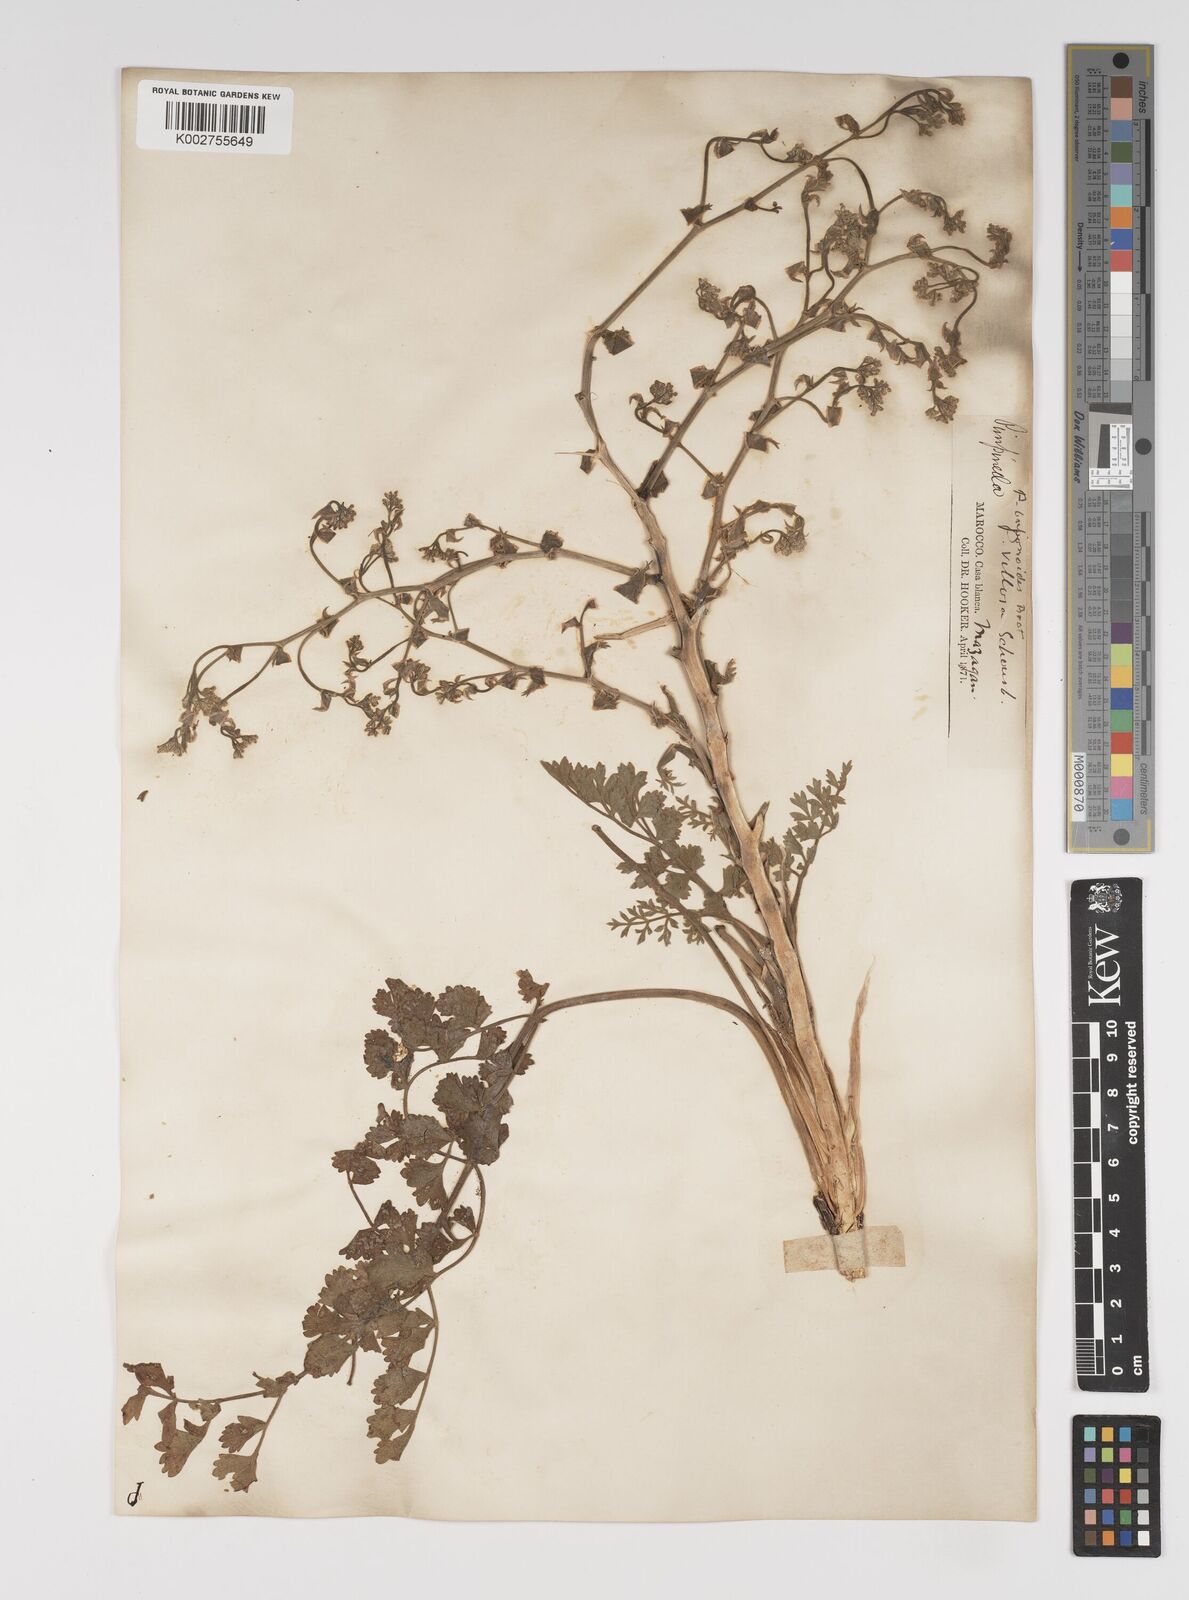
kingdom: Plantae
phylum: Tracheophyta
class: Magnoliopsida
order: Apiales
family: Apiaceae
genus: Pimpinella
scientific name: Pimpinella villosa
